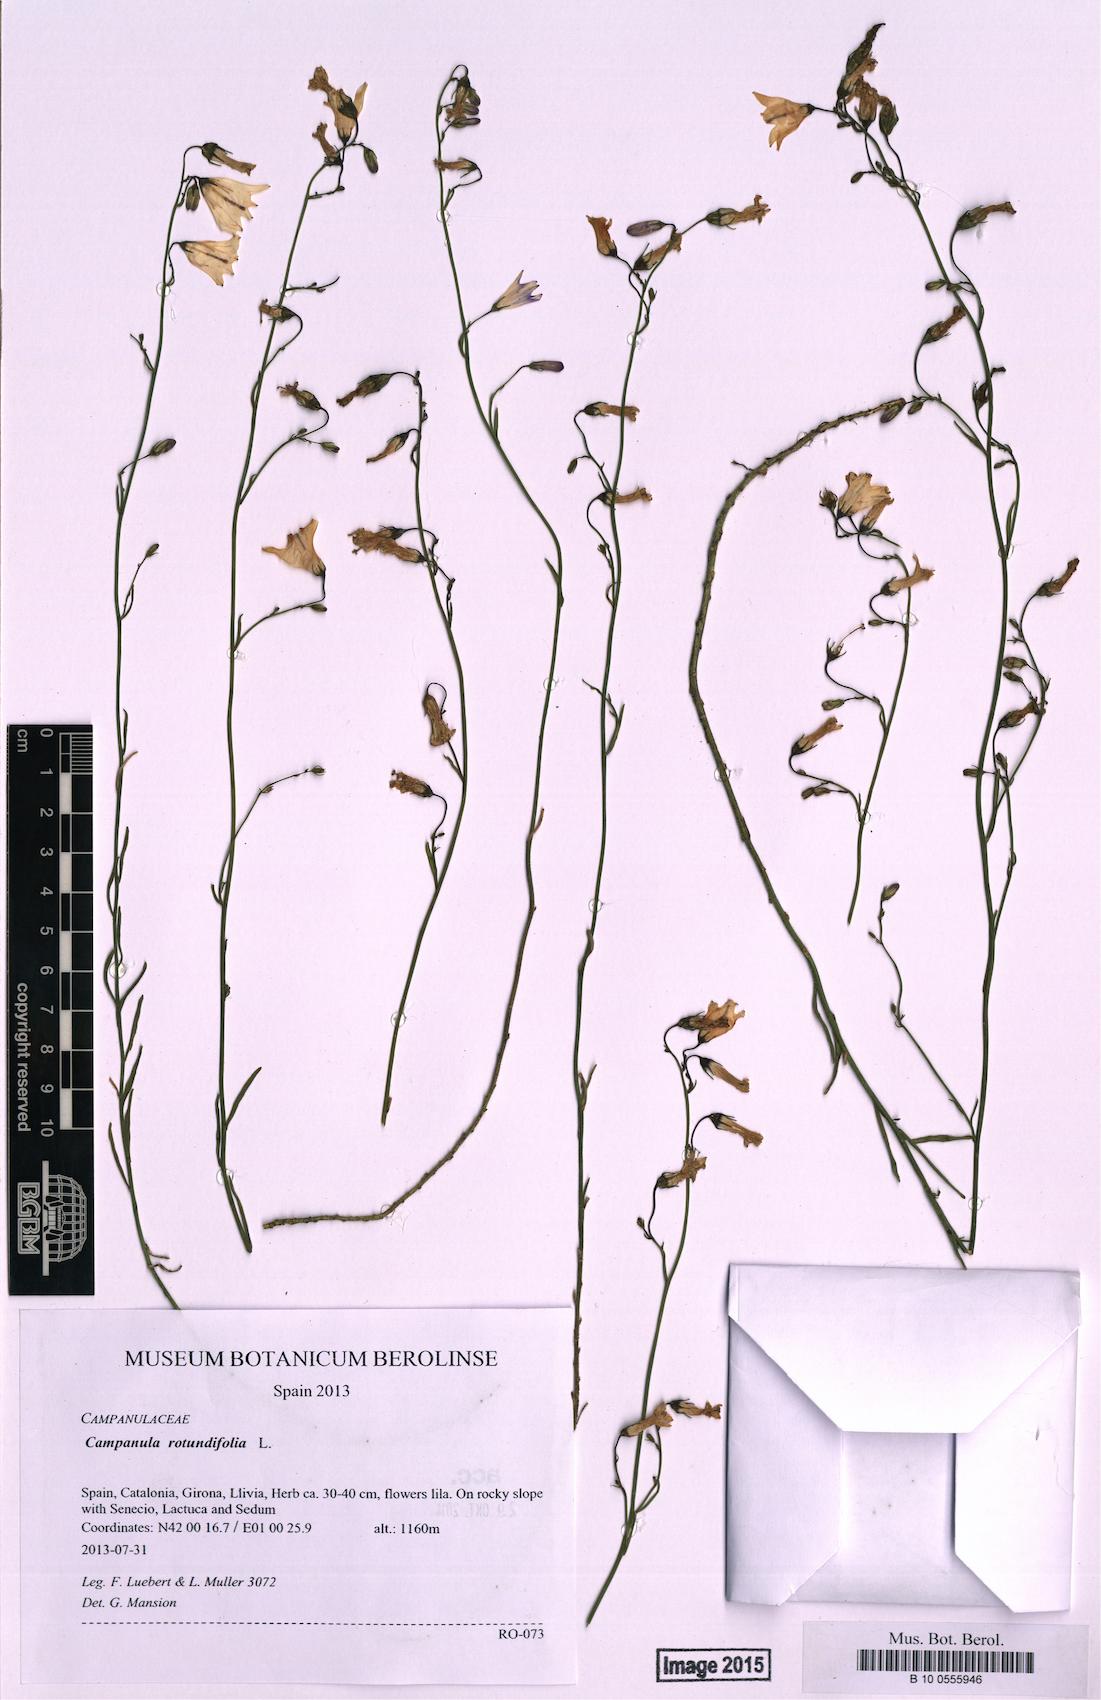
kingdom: Plantae
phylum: Tracheophyta
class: Magnoliopsida
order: Asterales
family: Campanulaceae
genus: Campanula
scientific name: Campanula rotundifolia
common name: Harebell
